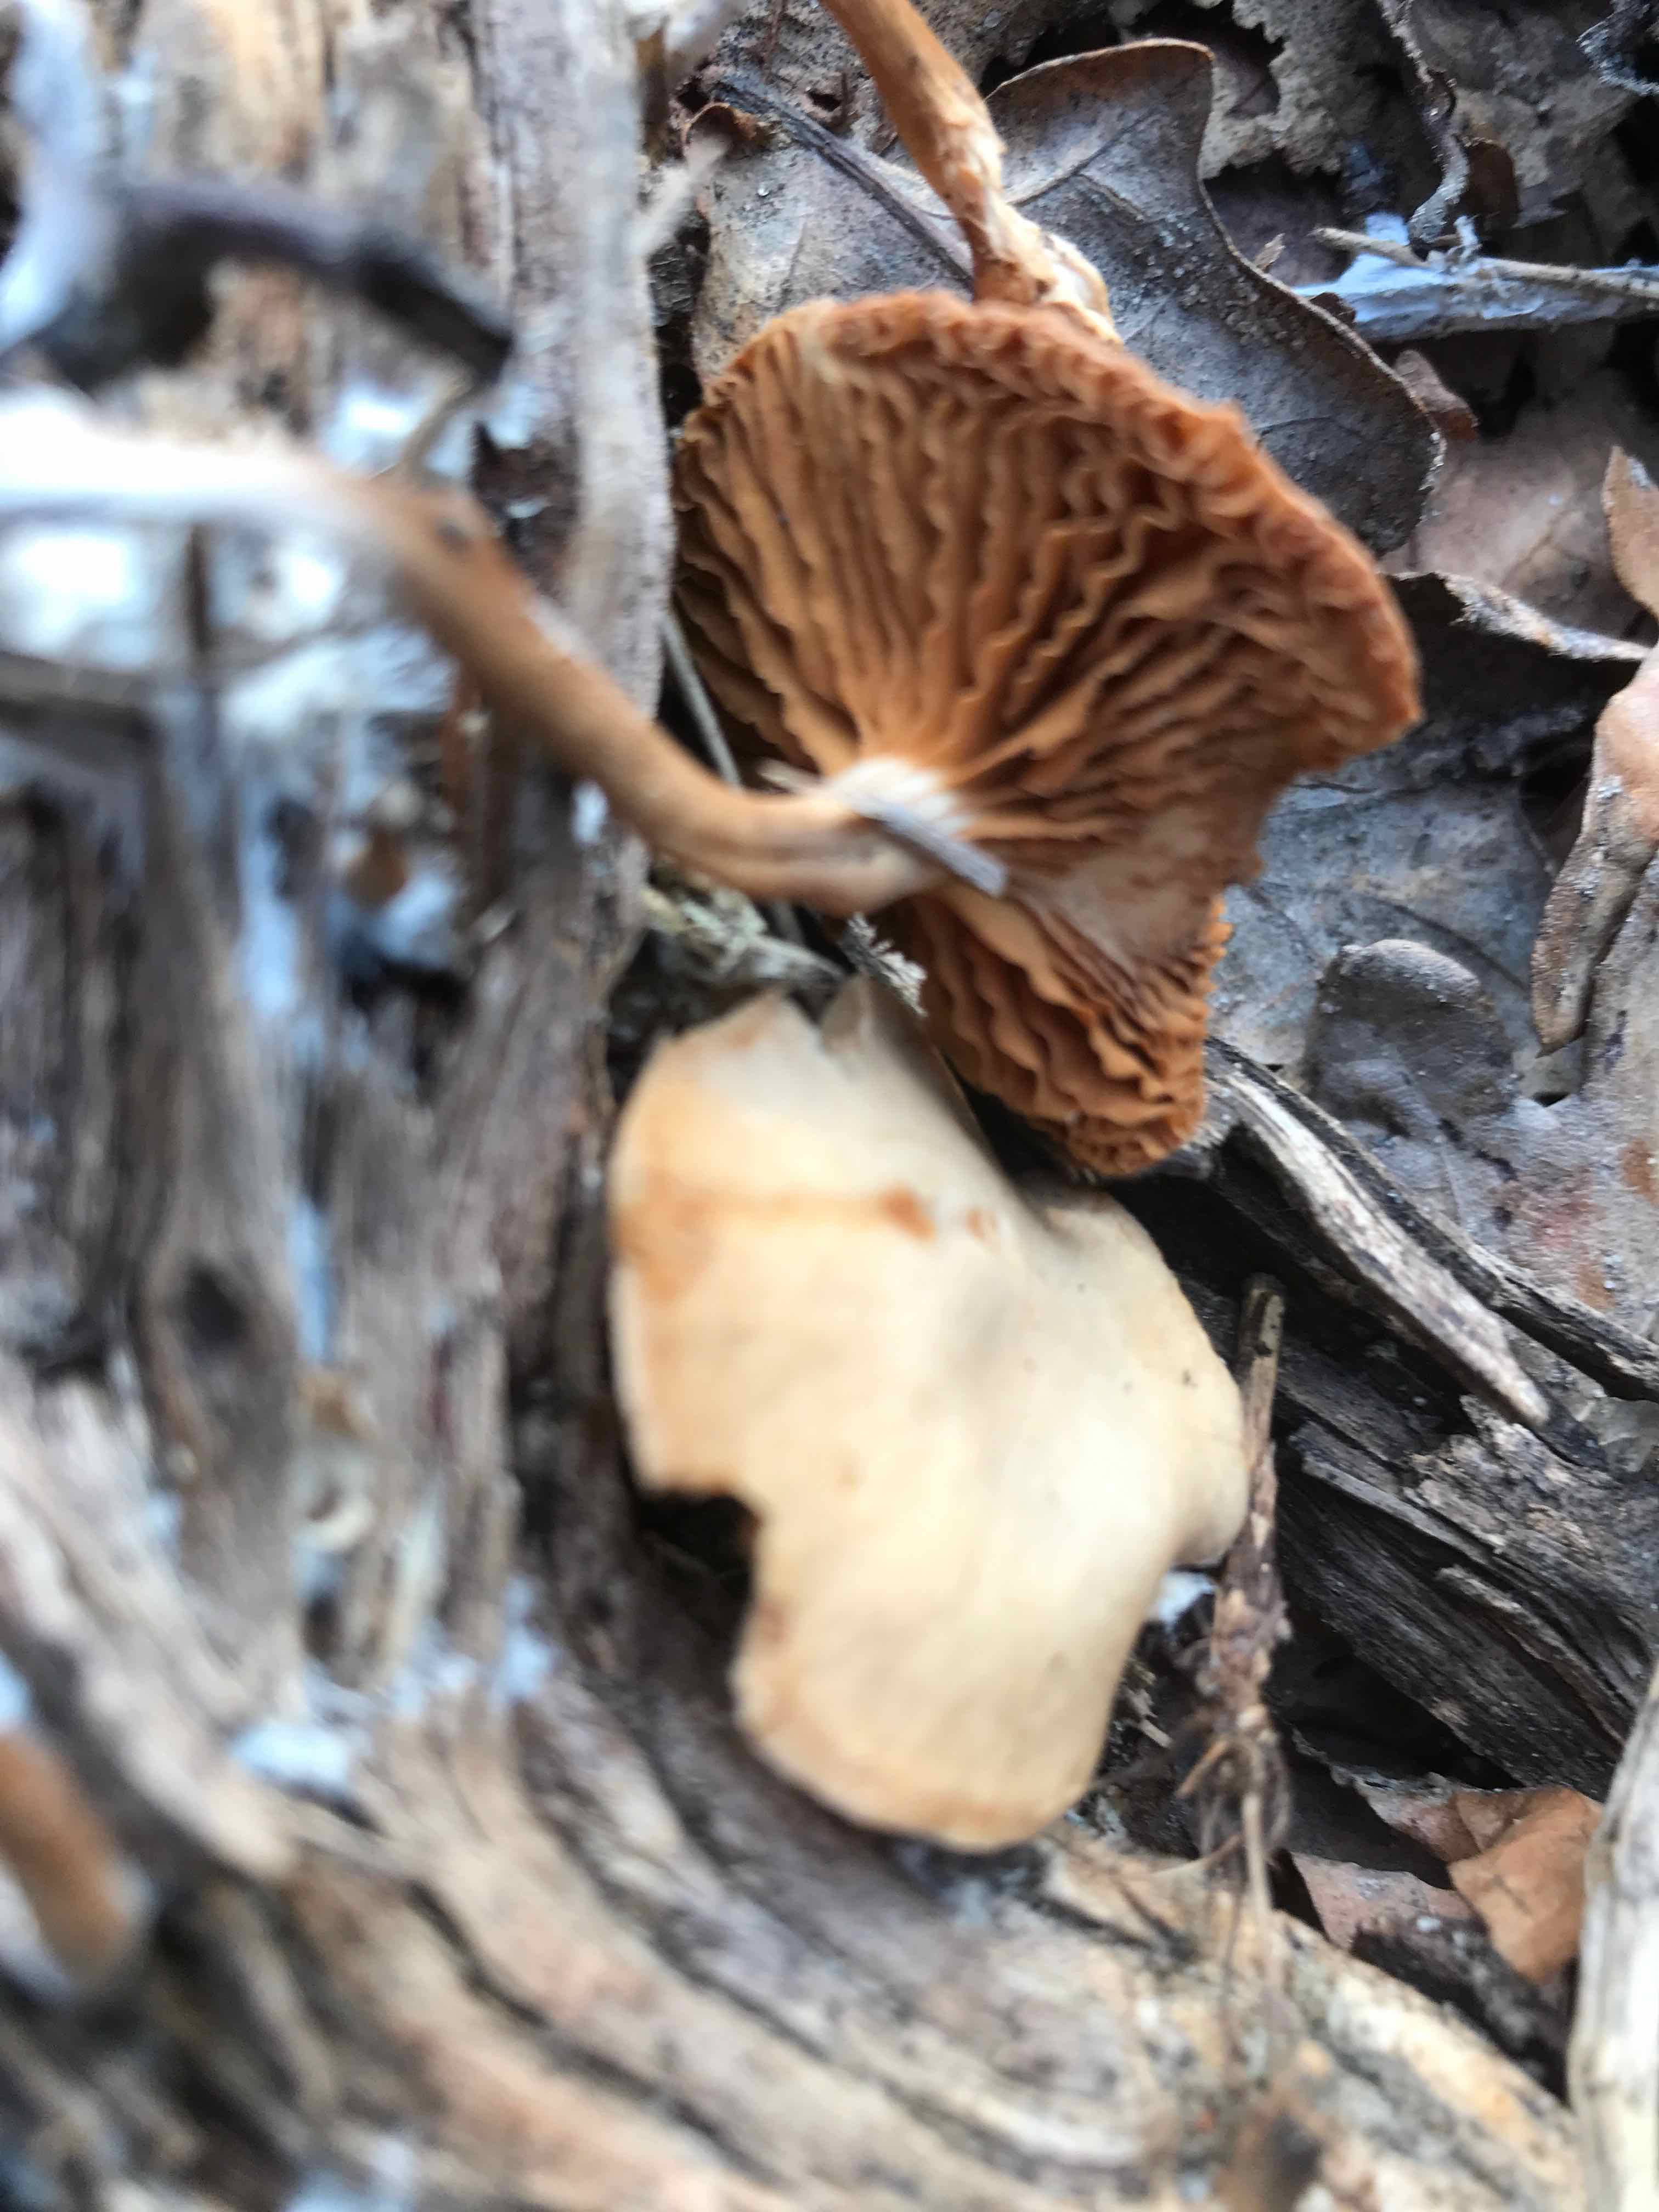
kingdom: Fungi
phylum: Basidiomycota
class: Agaricomycetes
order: Agaricales
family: Tubariaceae
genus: Tubaria
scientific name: Tubaria furfuracea
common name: kliddet fnughat
